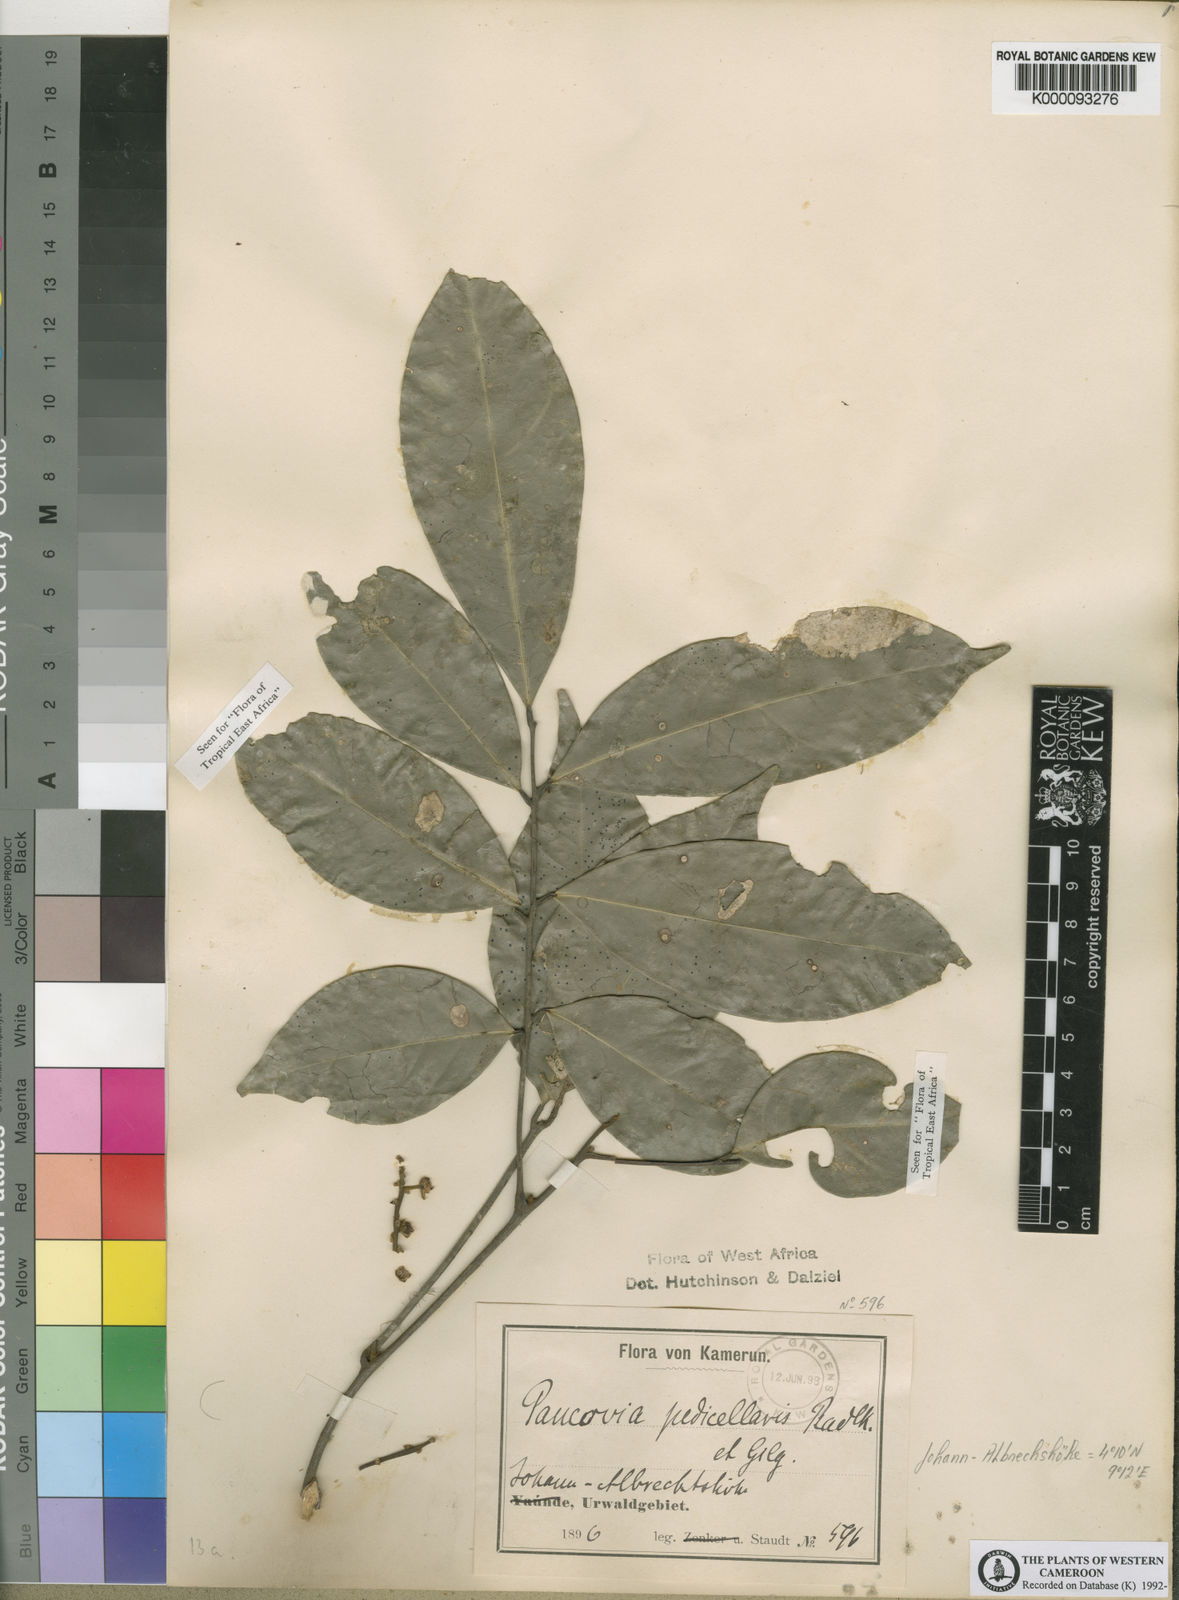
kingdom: Plantae
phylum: Tracheophyta
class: Magnoliopsida
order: Sapindales
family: Sapindaceae
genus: Pancovia
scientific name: Pancovia turbinata
